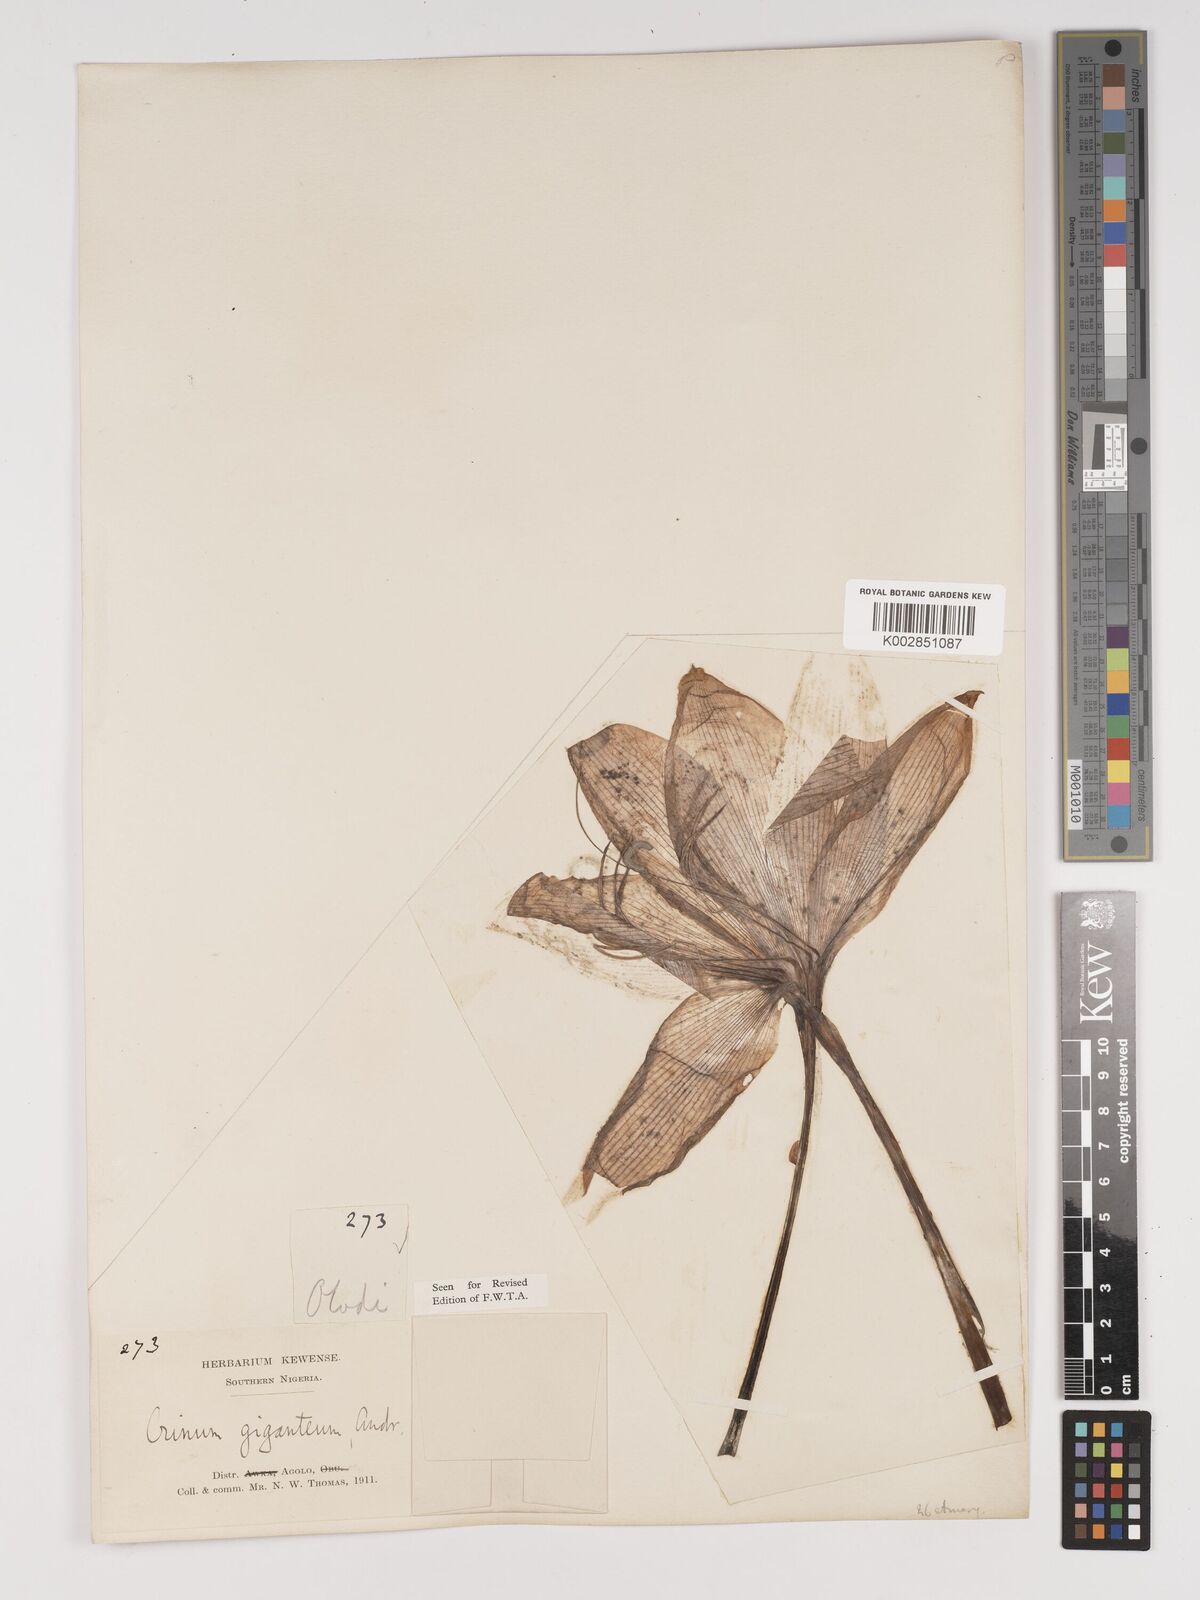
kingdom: Plantae
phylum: Tracheophyta
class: Liliopsida
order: Asparagales
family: Amaryllidaceae
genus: Crinum
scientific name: Crinum jagus
